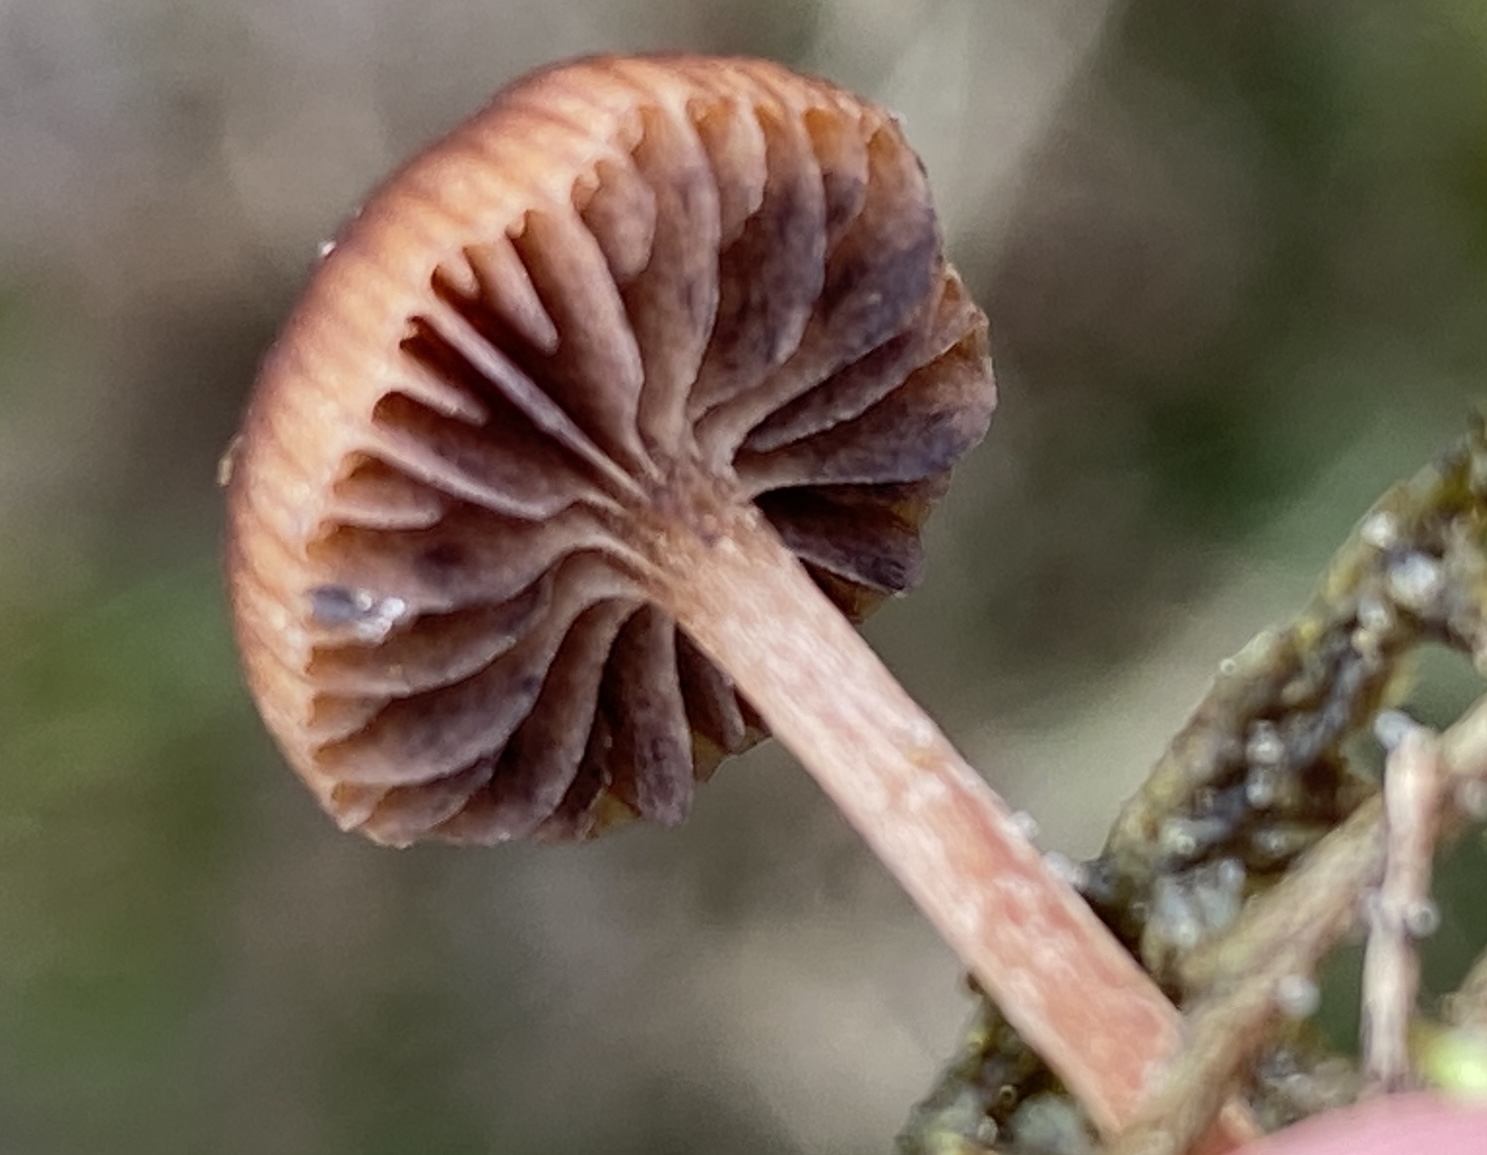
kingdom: Fungi
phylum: Basidiomycota
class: Agaricomycetes
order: Agaricales
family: Strophariaceae
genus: Deconica
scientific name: Deconica montana
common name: rødbrun stråhat
